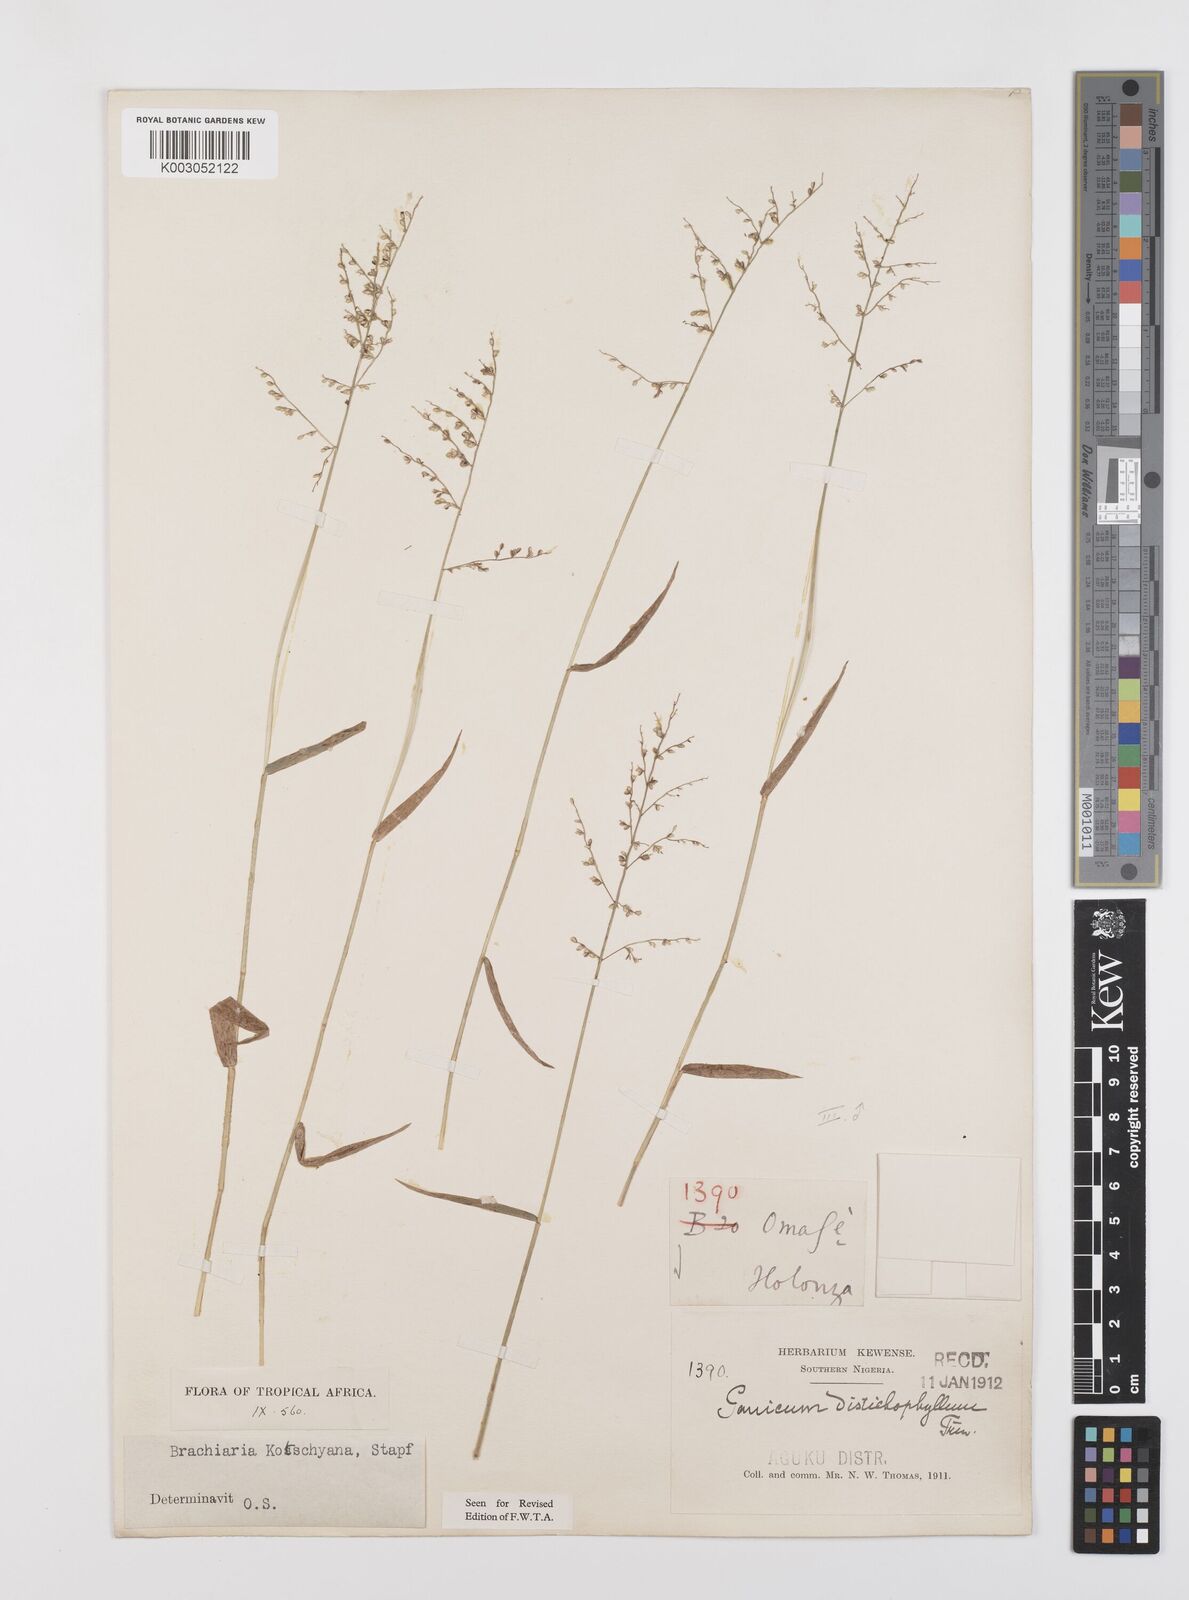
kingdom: Plantae
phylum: Tracheophyta
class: Liliopsida
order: Poales
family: Poaceae
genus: Urochloa
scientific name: Urochloa comata
